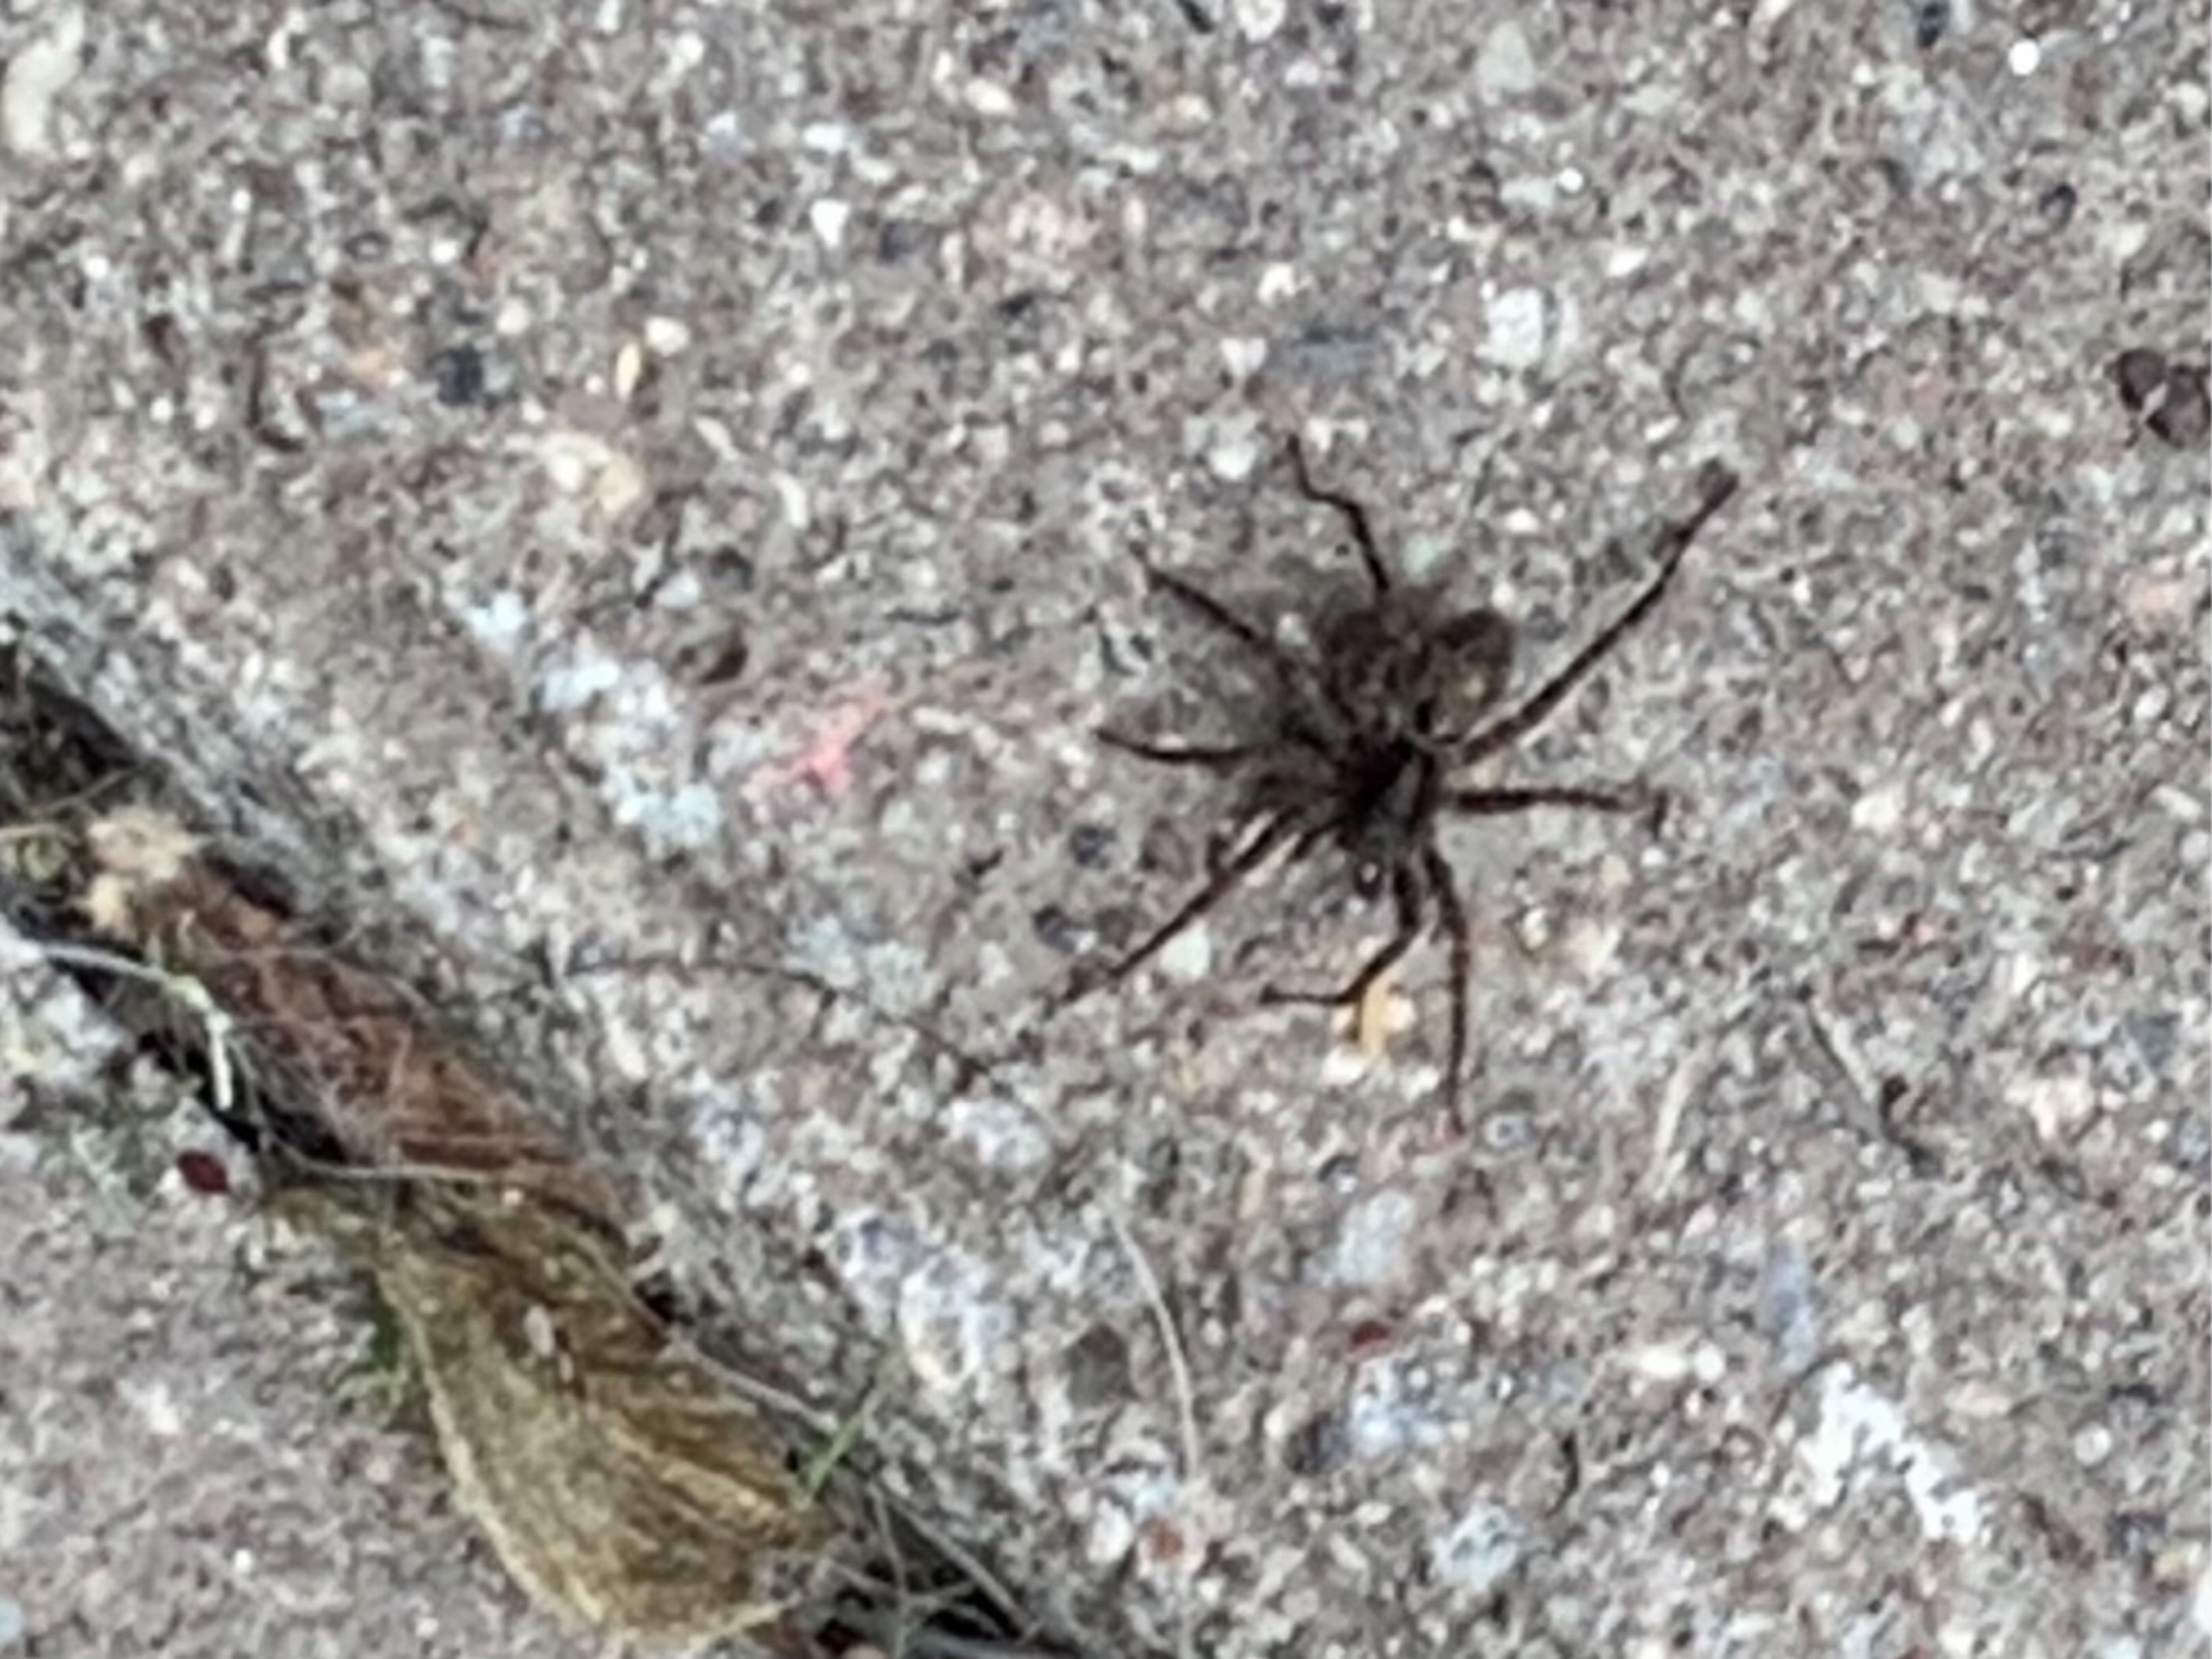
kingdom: Animalia
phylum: Arthropoda
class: Arachnida
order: Araneae
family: Lycosidae
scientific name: Lycosidae
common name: Jagtedderkopper
